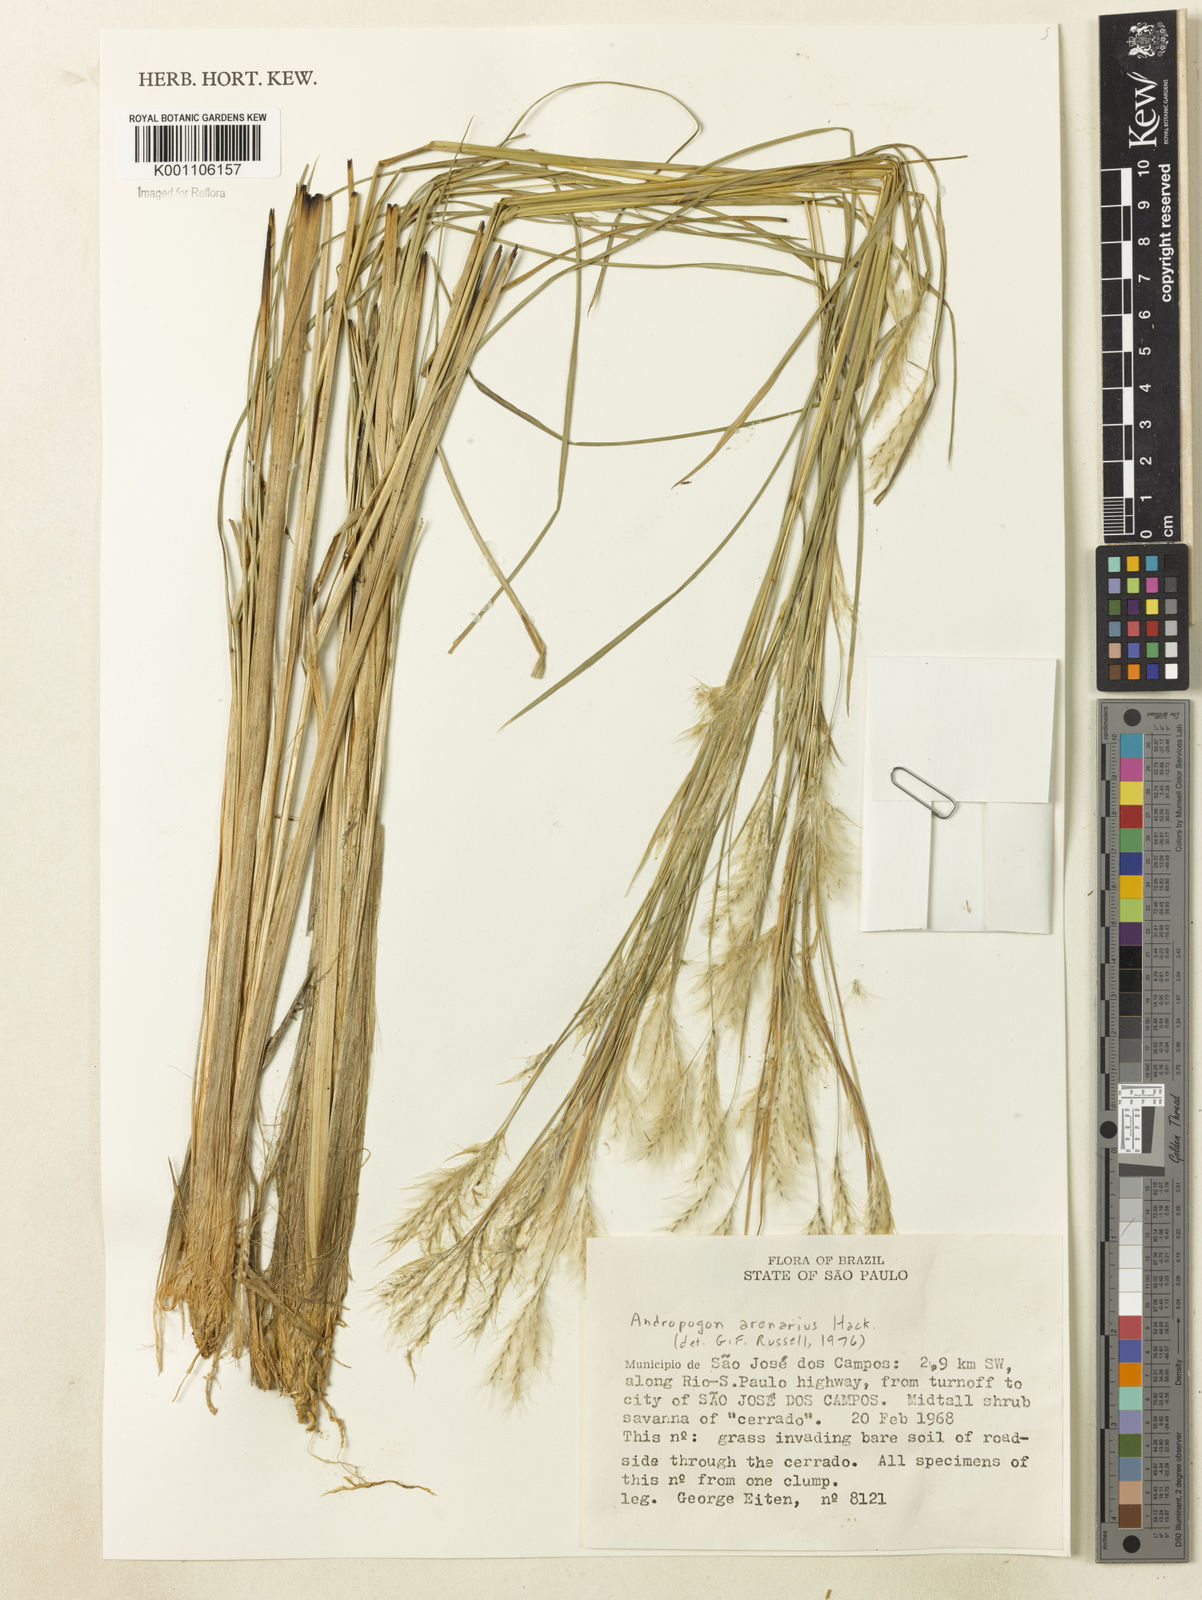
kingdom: Plantae
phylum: Tracheophyta
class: Liliopsida
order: Poales
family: Poaceae
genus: Andropogon
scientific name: Andropogon leucostachyus
